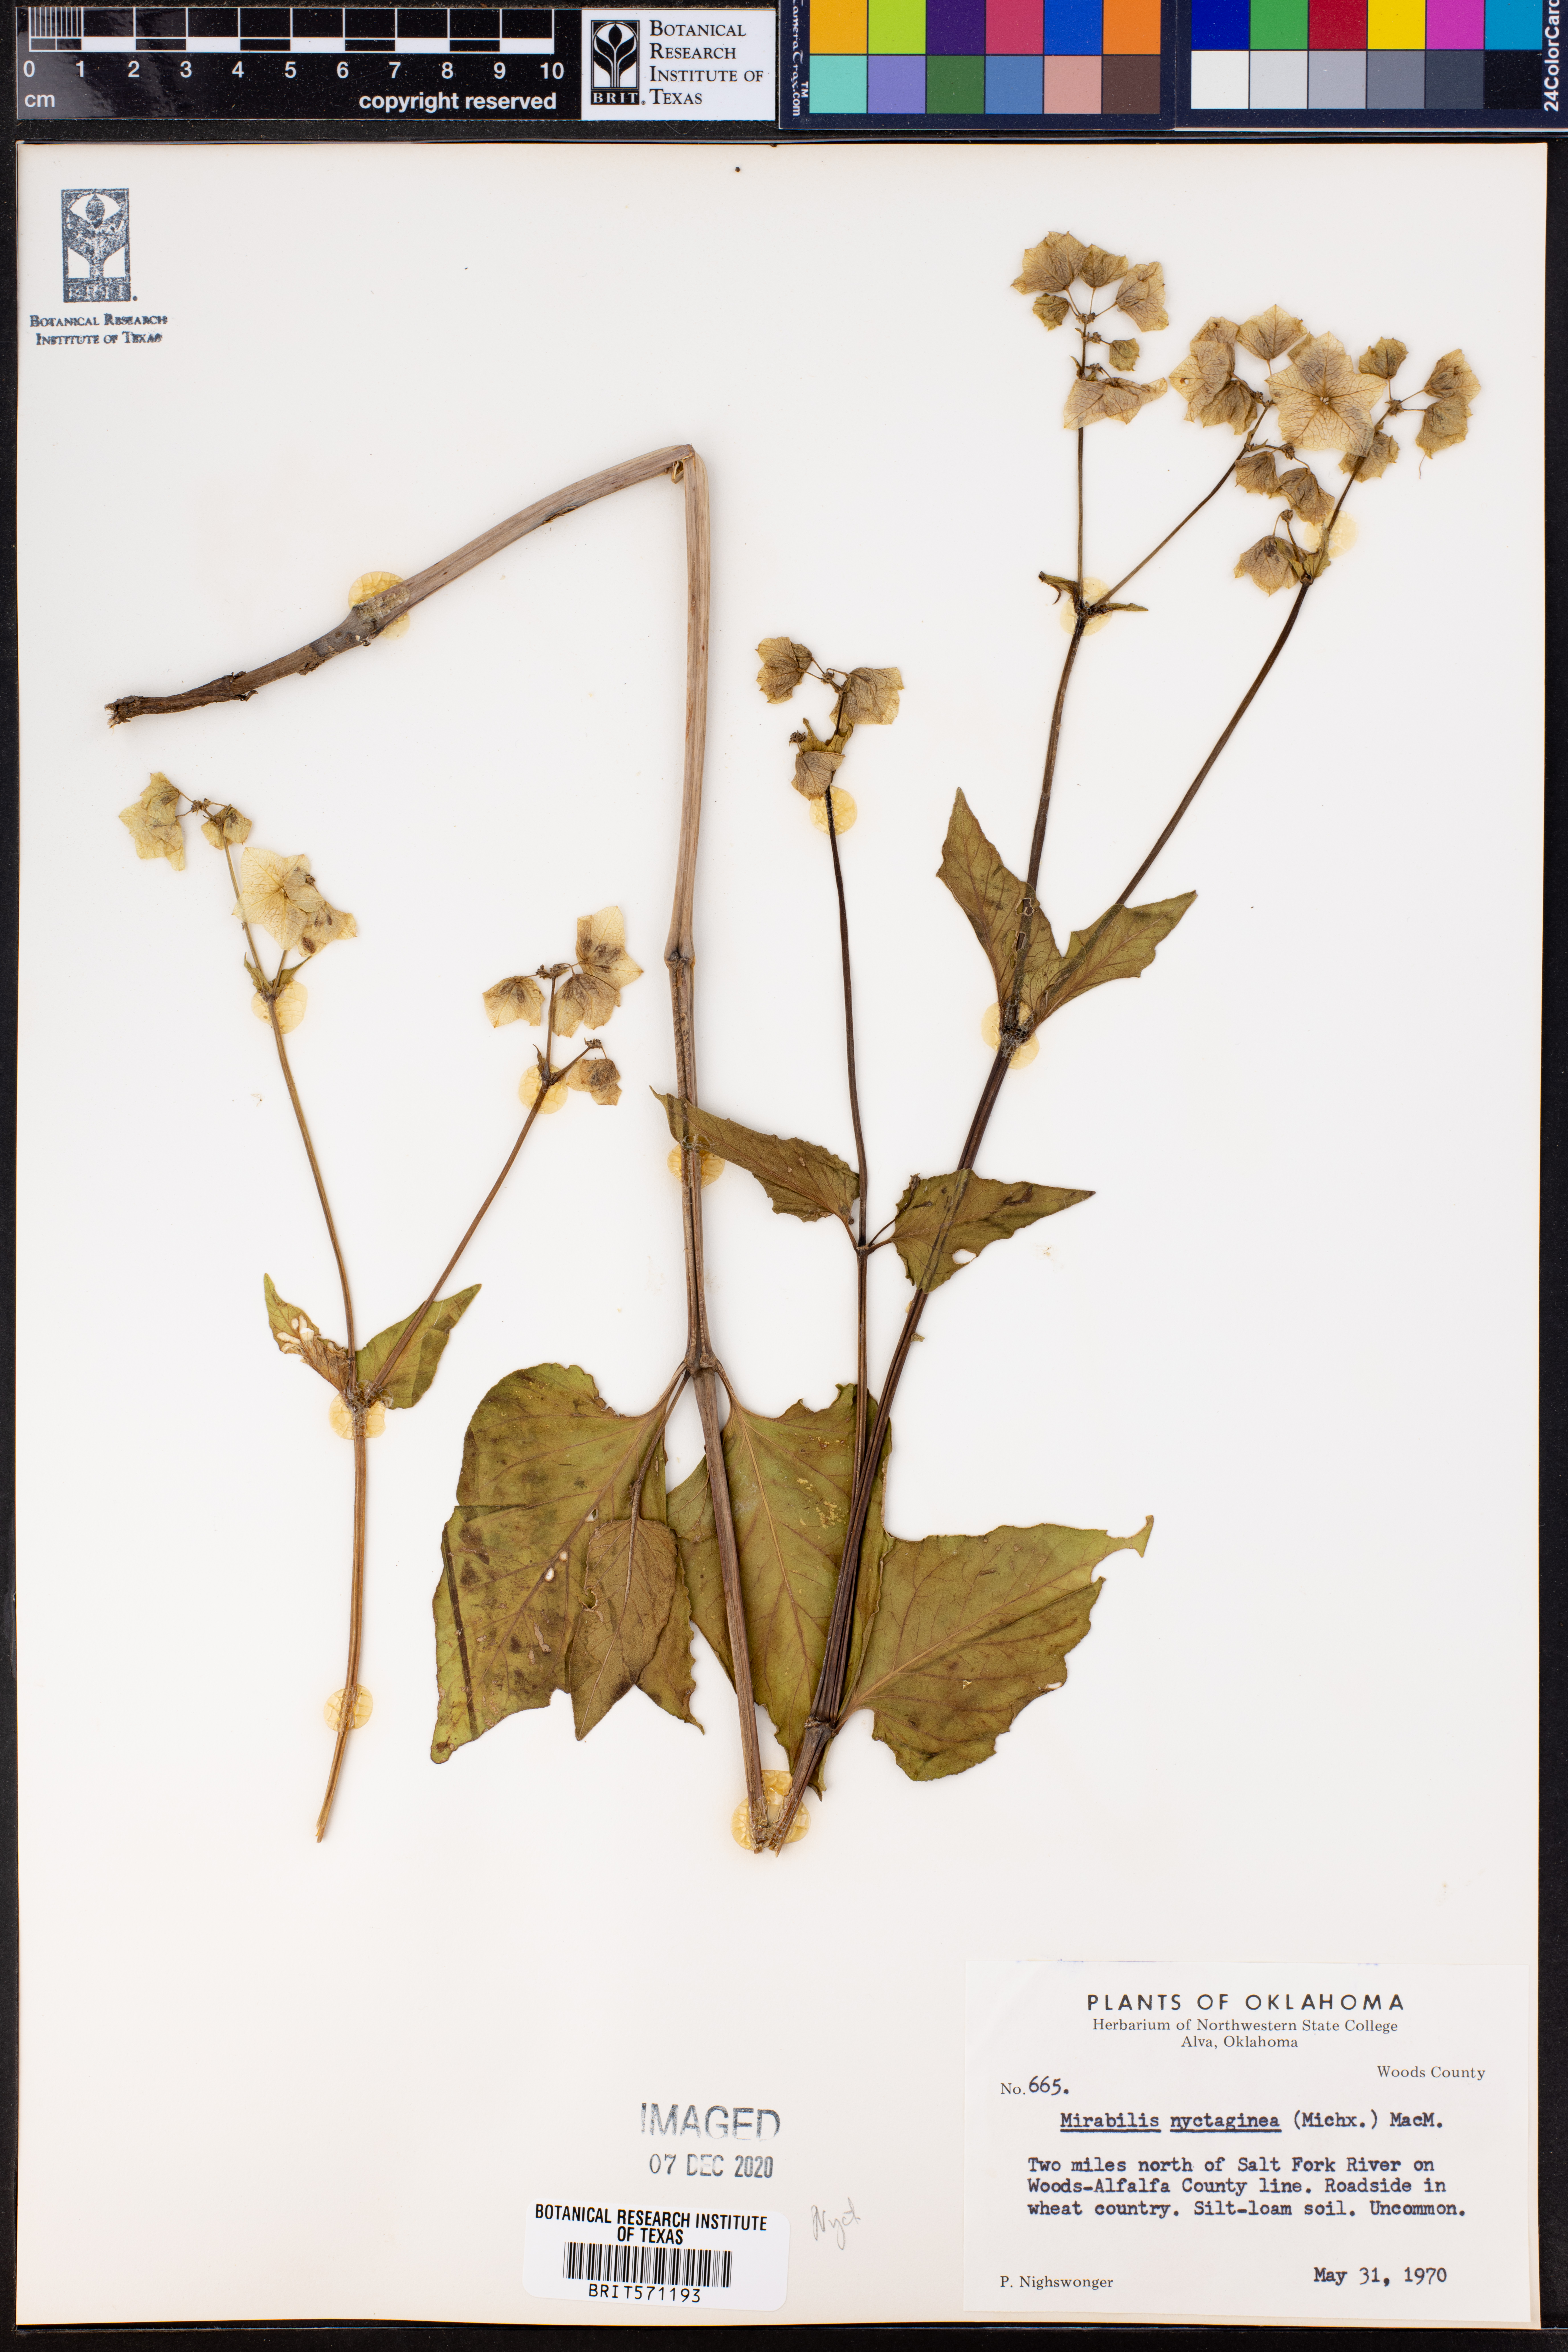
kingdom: Plantae
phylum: Tracheophyta
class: Magnoliopsida
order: Caryophyllales
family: Nyctaginaceae
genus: Mirabilis
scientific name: Mirabilis nyctaginea
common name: Umbrella wort
